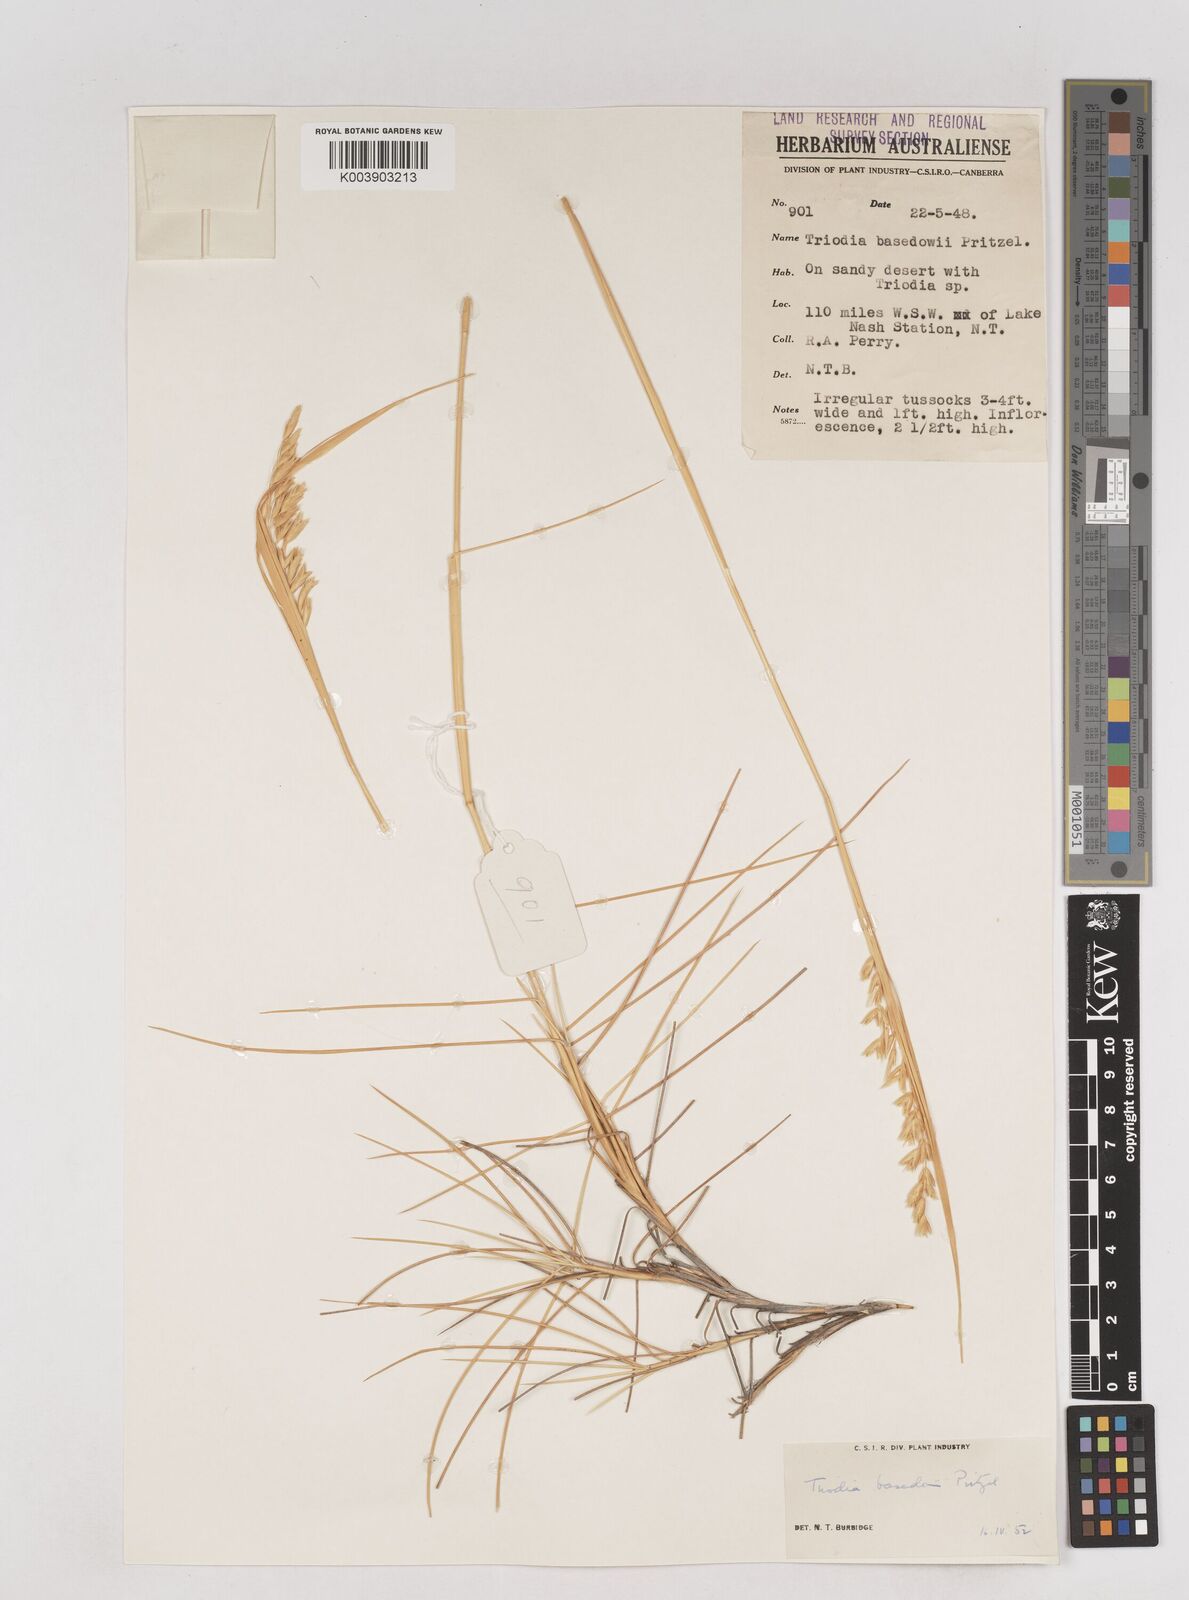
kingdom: Plantae
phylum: Tracheophyta
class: Liliopsida
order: Poales
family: Poaceae
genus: Triodia
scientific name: Triodia basedowii
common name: Hard spinifex
